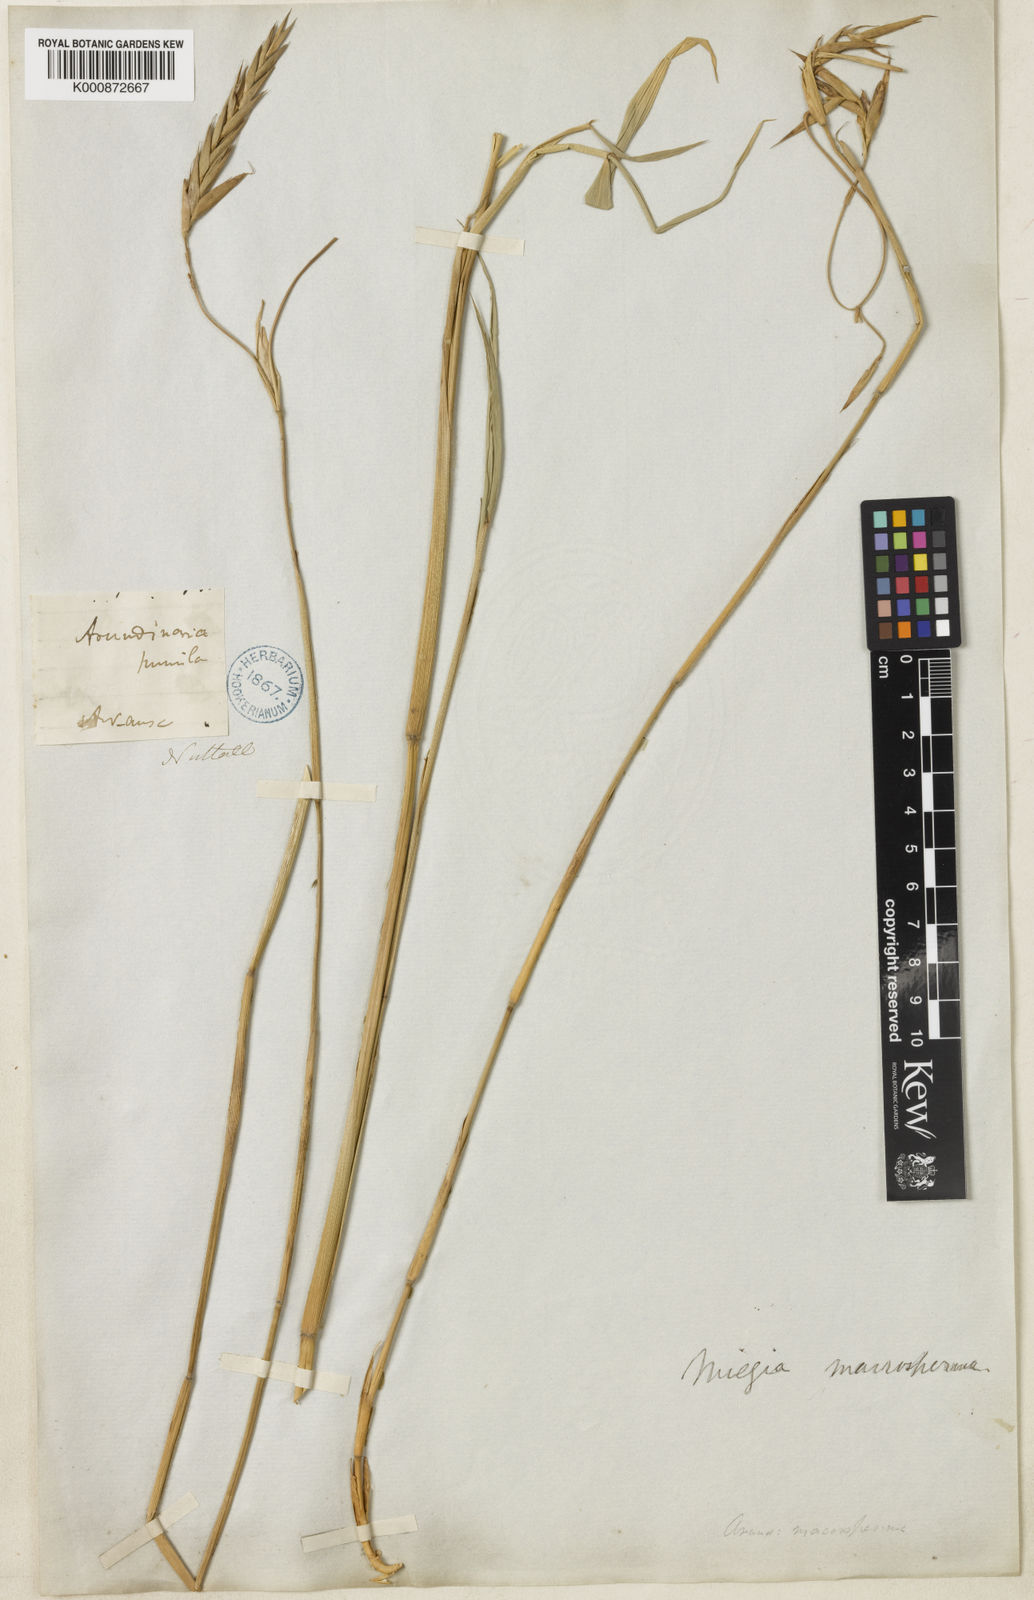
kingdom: Plantae
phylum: Tracheophyta
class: Liliopsida
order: Poales
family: Poaceae
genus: Arundinaria
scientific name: Arundinaria gigantea
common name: Giant cane
